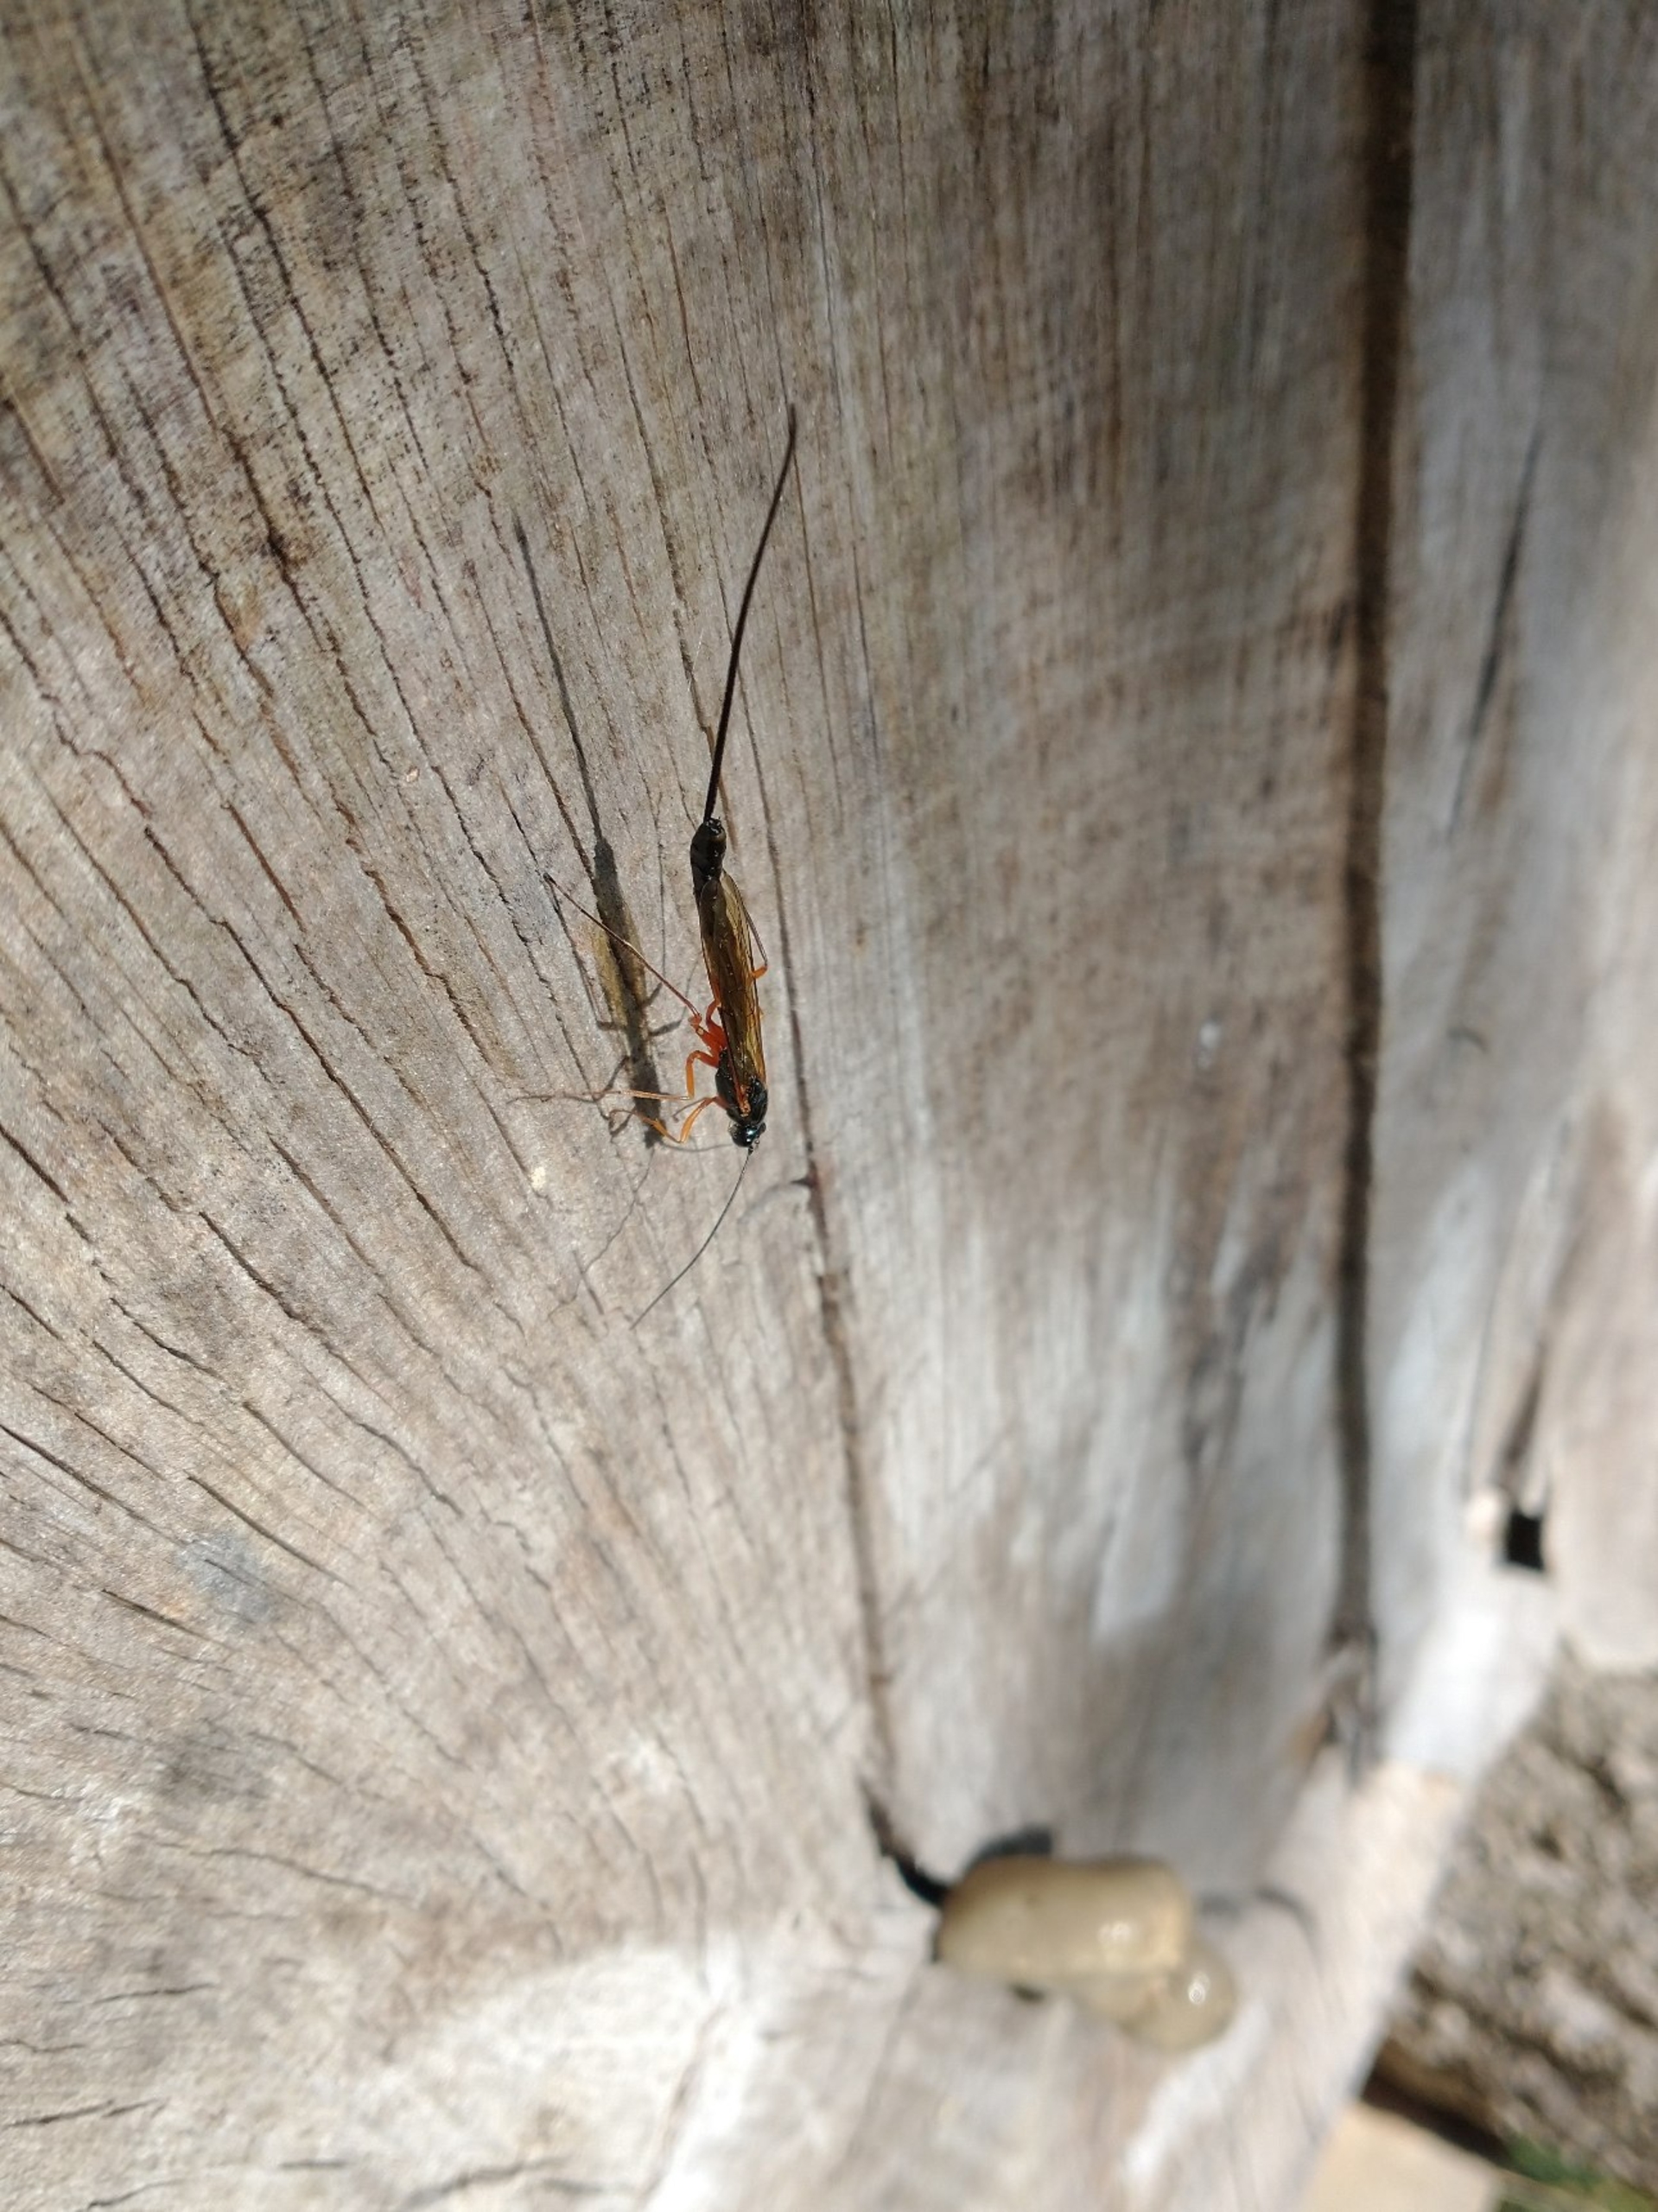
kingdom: Animalia
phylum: Arthropoda
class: Insecta
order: Hymenoptera
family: Ichneumonidae
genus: Dolichomitus
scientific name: Dolichomitus
